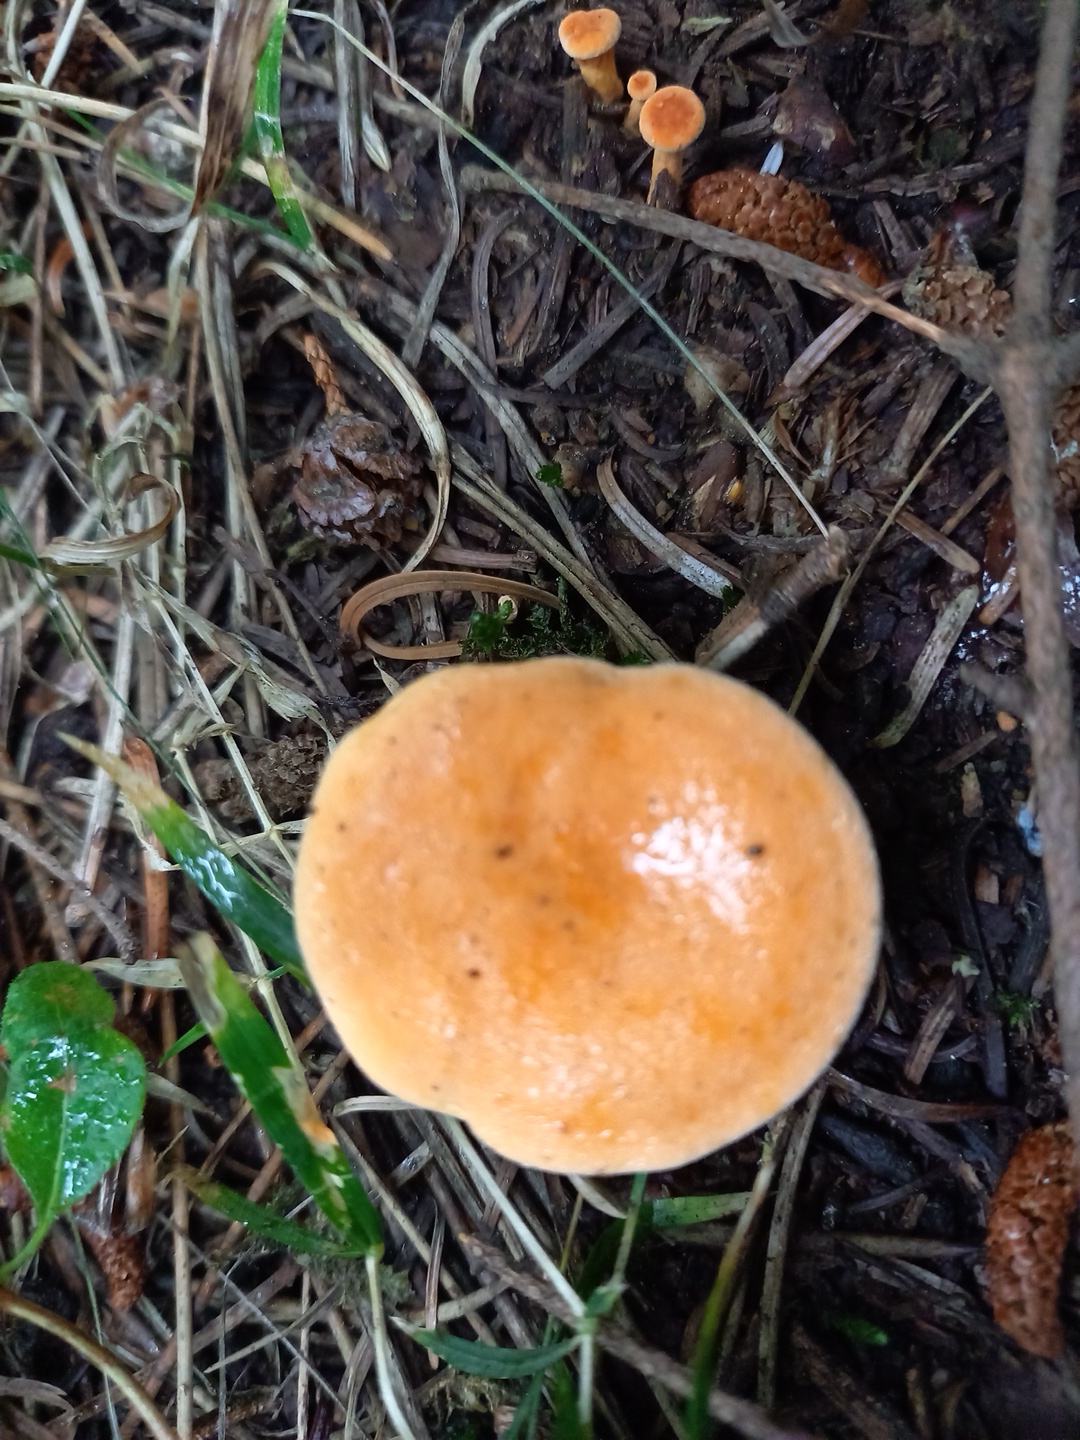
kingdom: Fungi
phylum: Basidiomycota
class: Agaricomycetes
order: Boletales
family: Hygrophoropsidaceae
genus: Hygrophoropsis
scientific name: Hygrophoropsis aurantiaca
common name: almindelig orangekantarel
